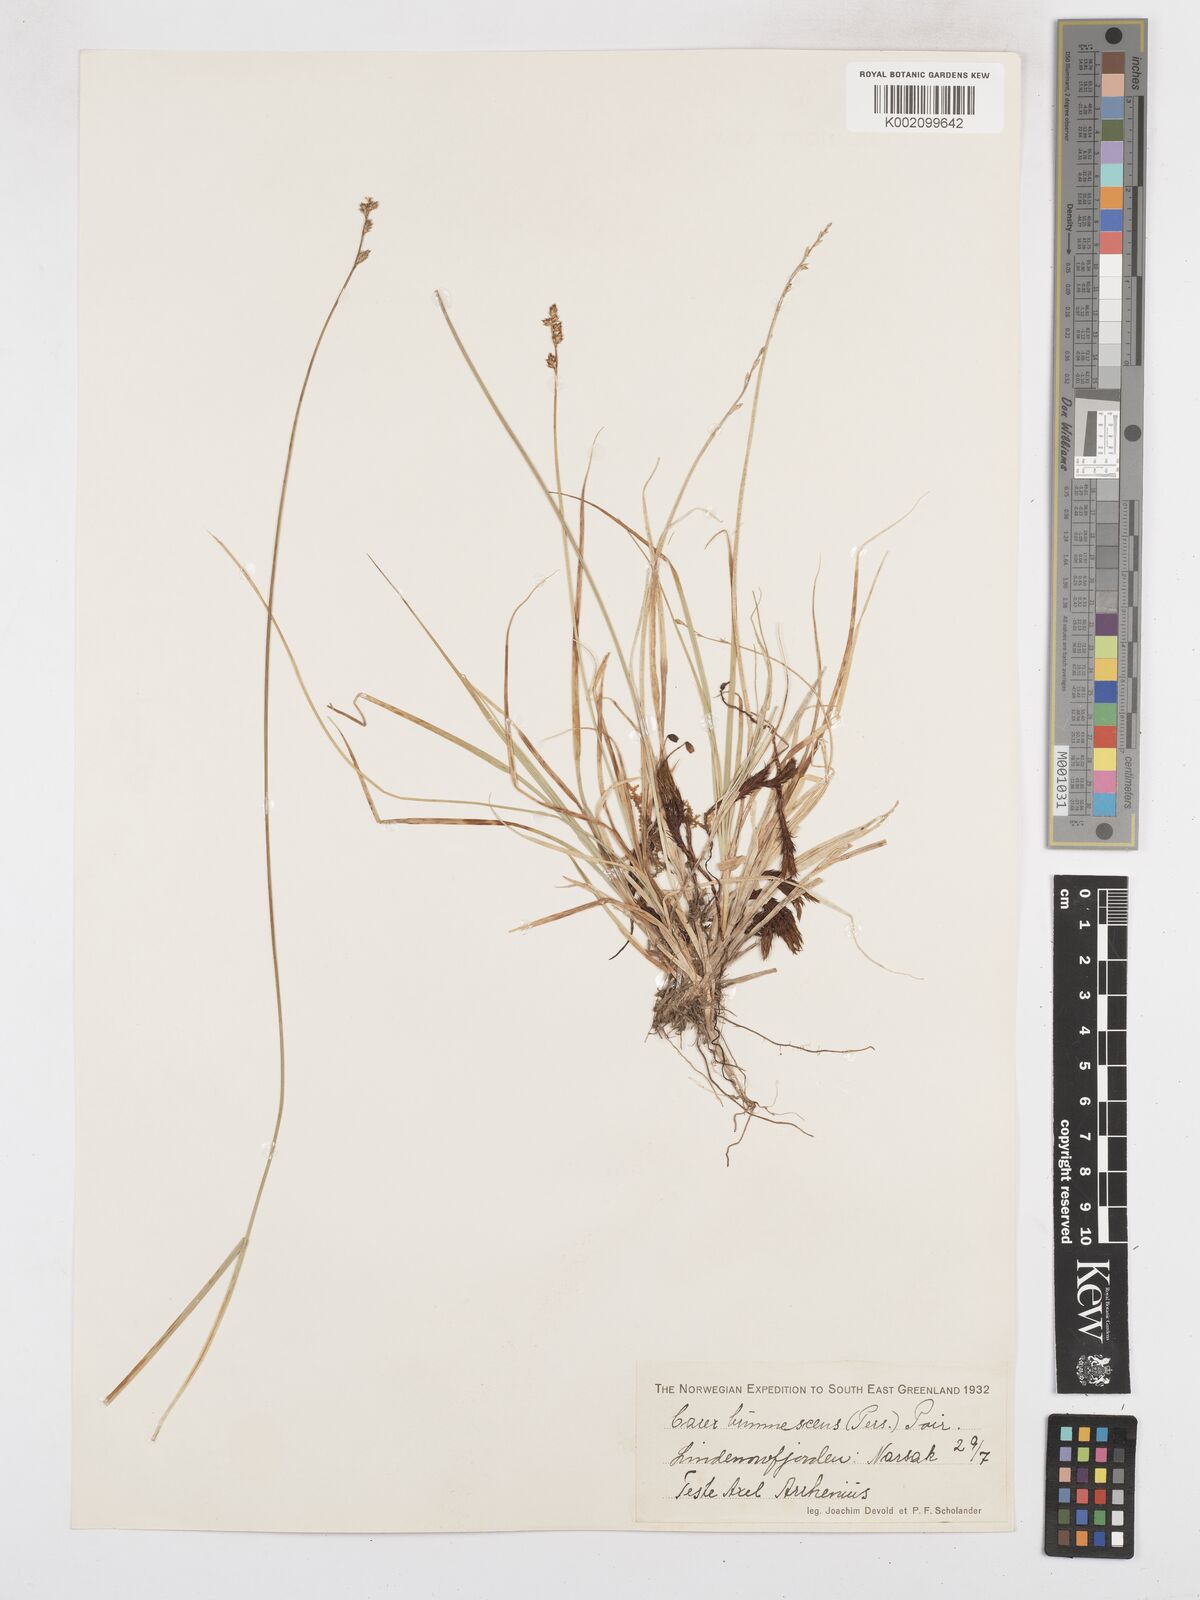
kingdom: Plantae
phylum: Tracheophyta
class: Liliopsida
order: Poales
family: Cyperaceae
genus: Carex
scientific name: Carex brunnescens
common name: Brown sedge
